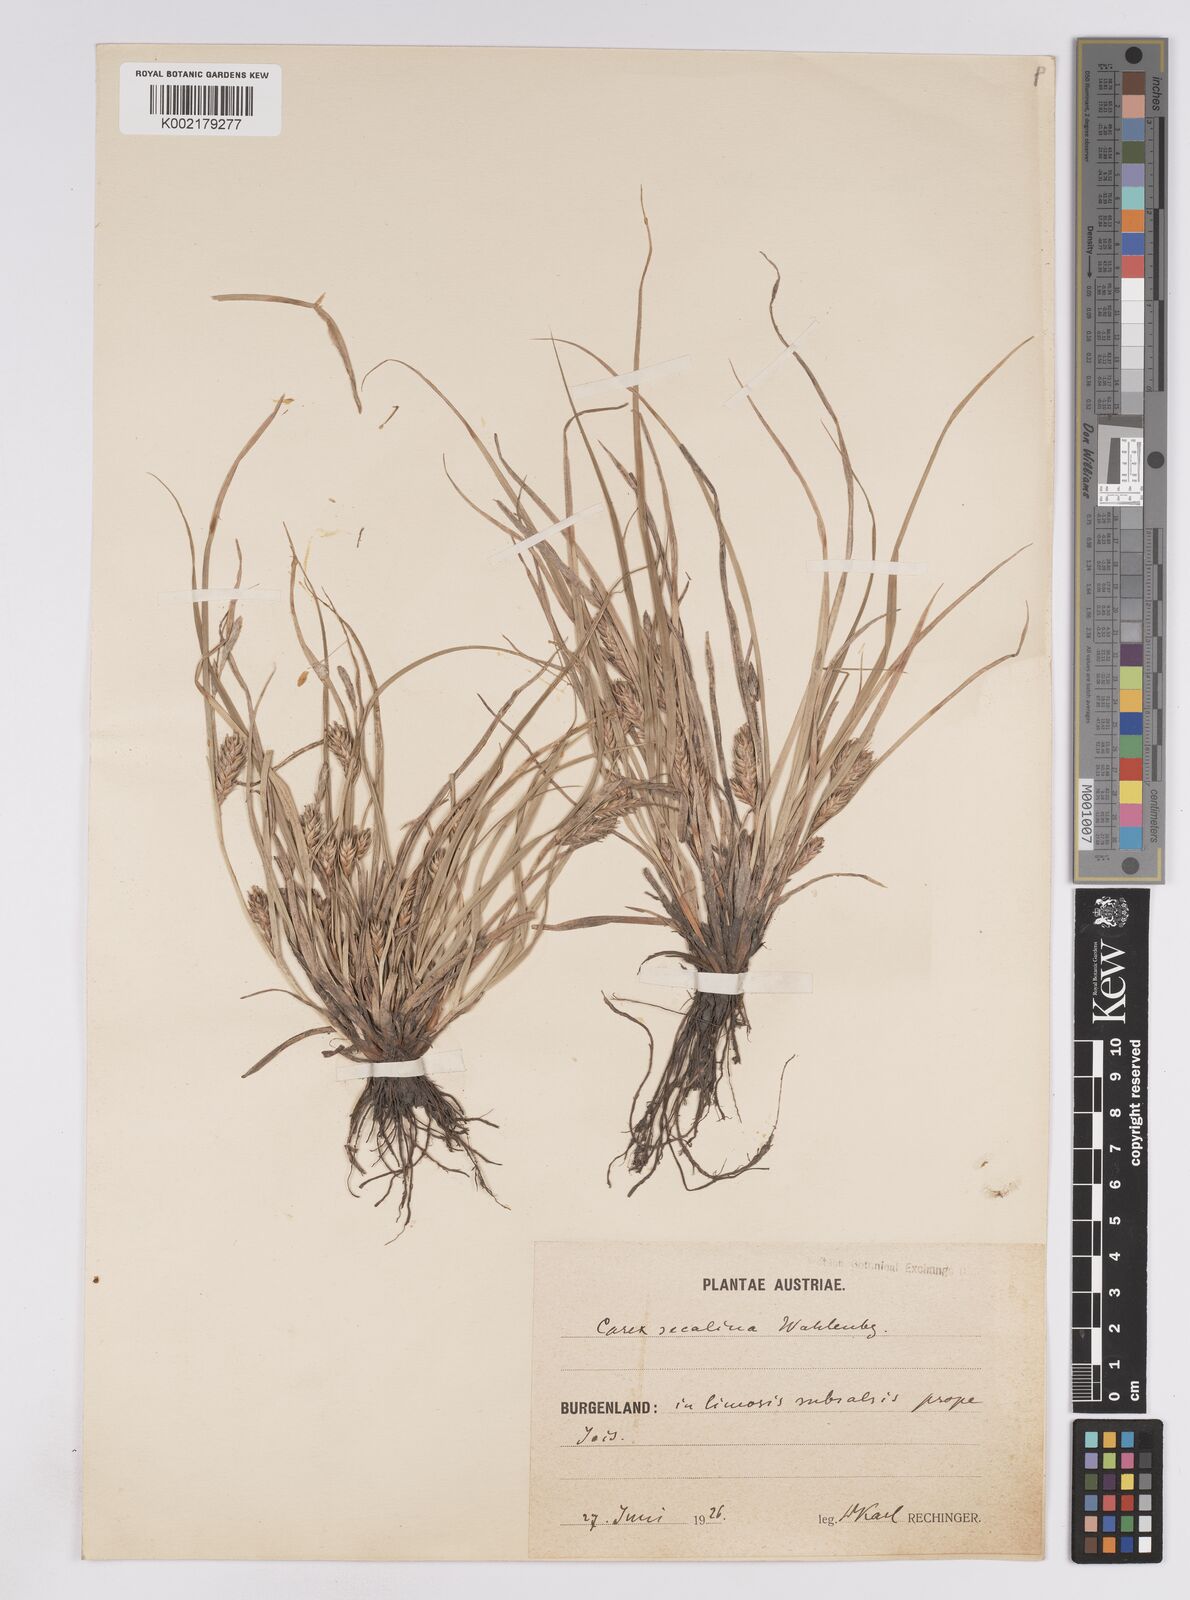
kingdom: Plantae
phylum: Tracheophyta
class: Liliopsida
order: Poales
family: Cyperaceae
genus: Carex
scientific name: Carex hordeistichos
